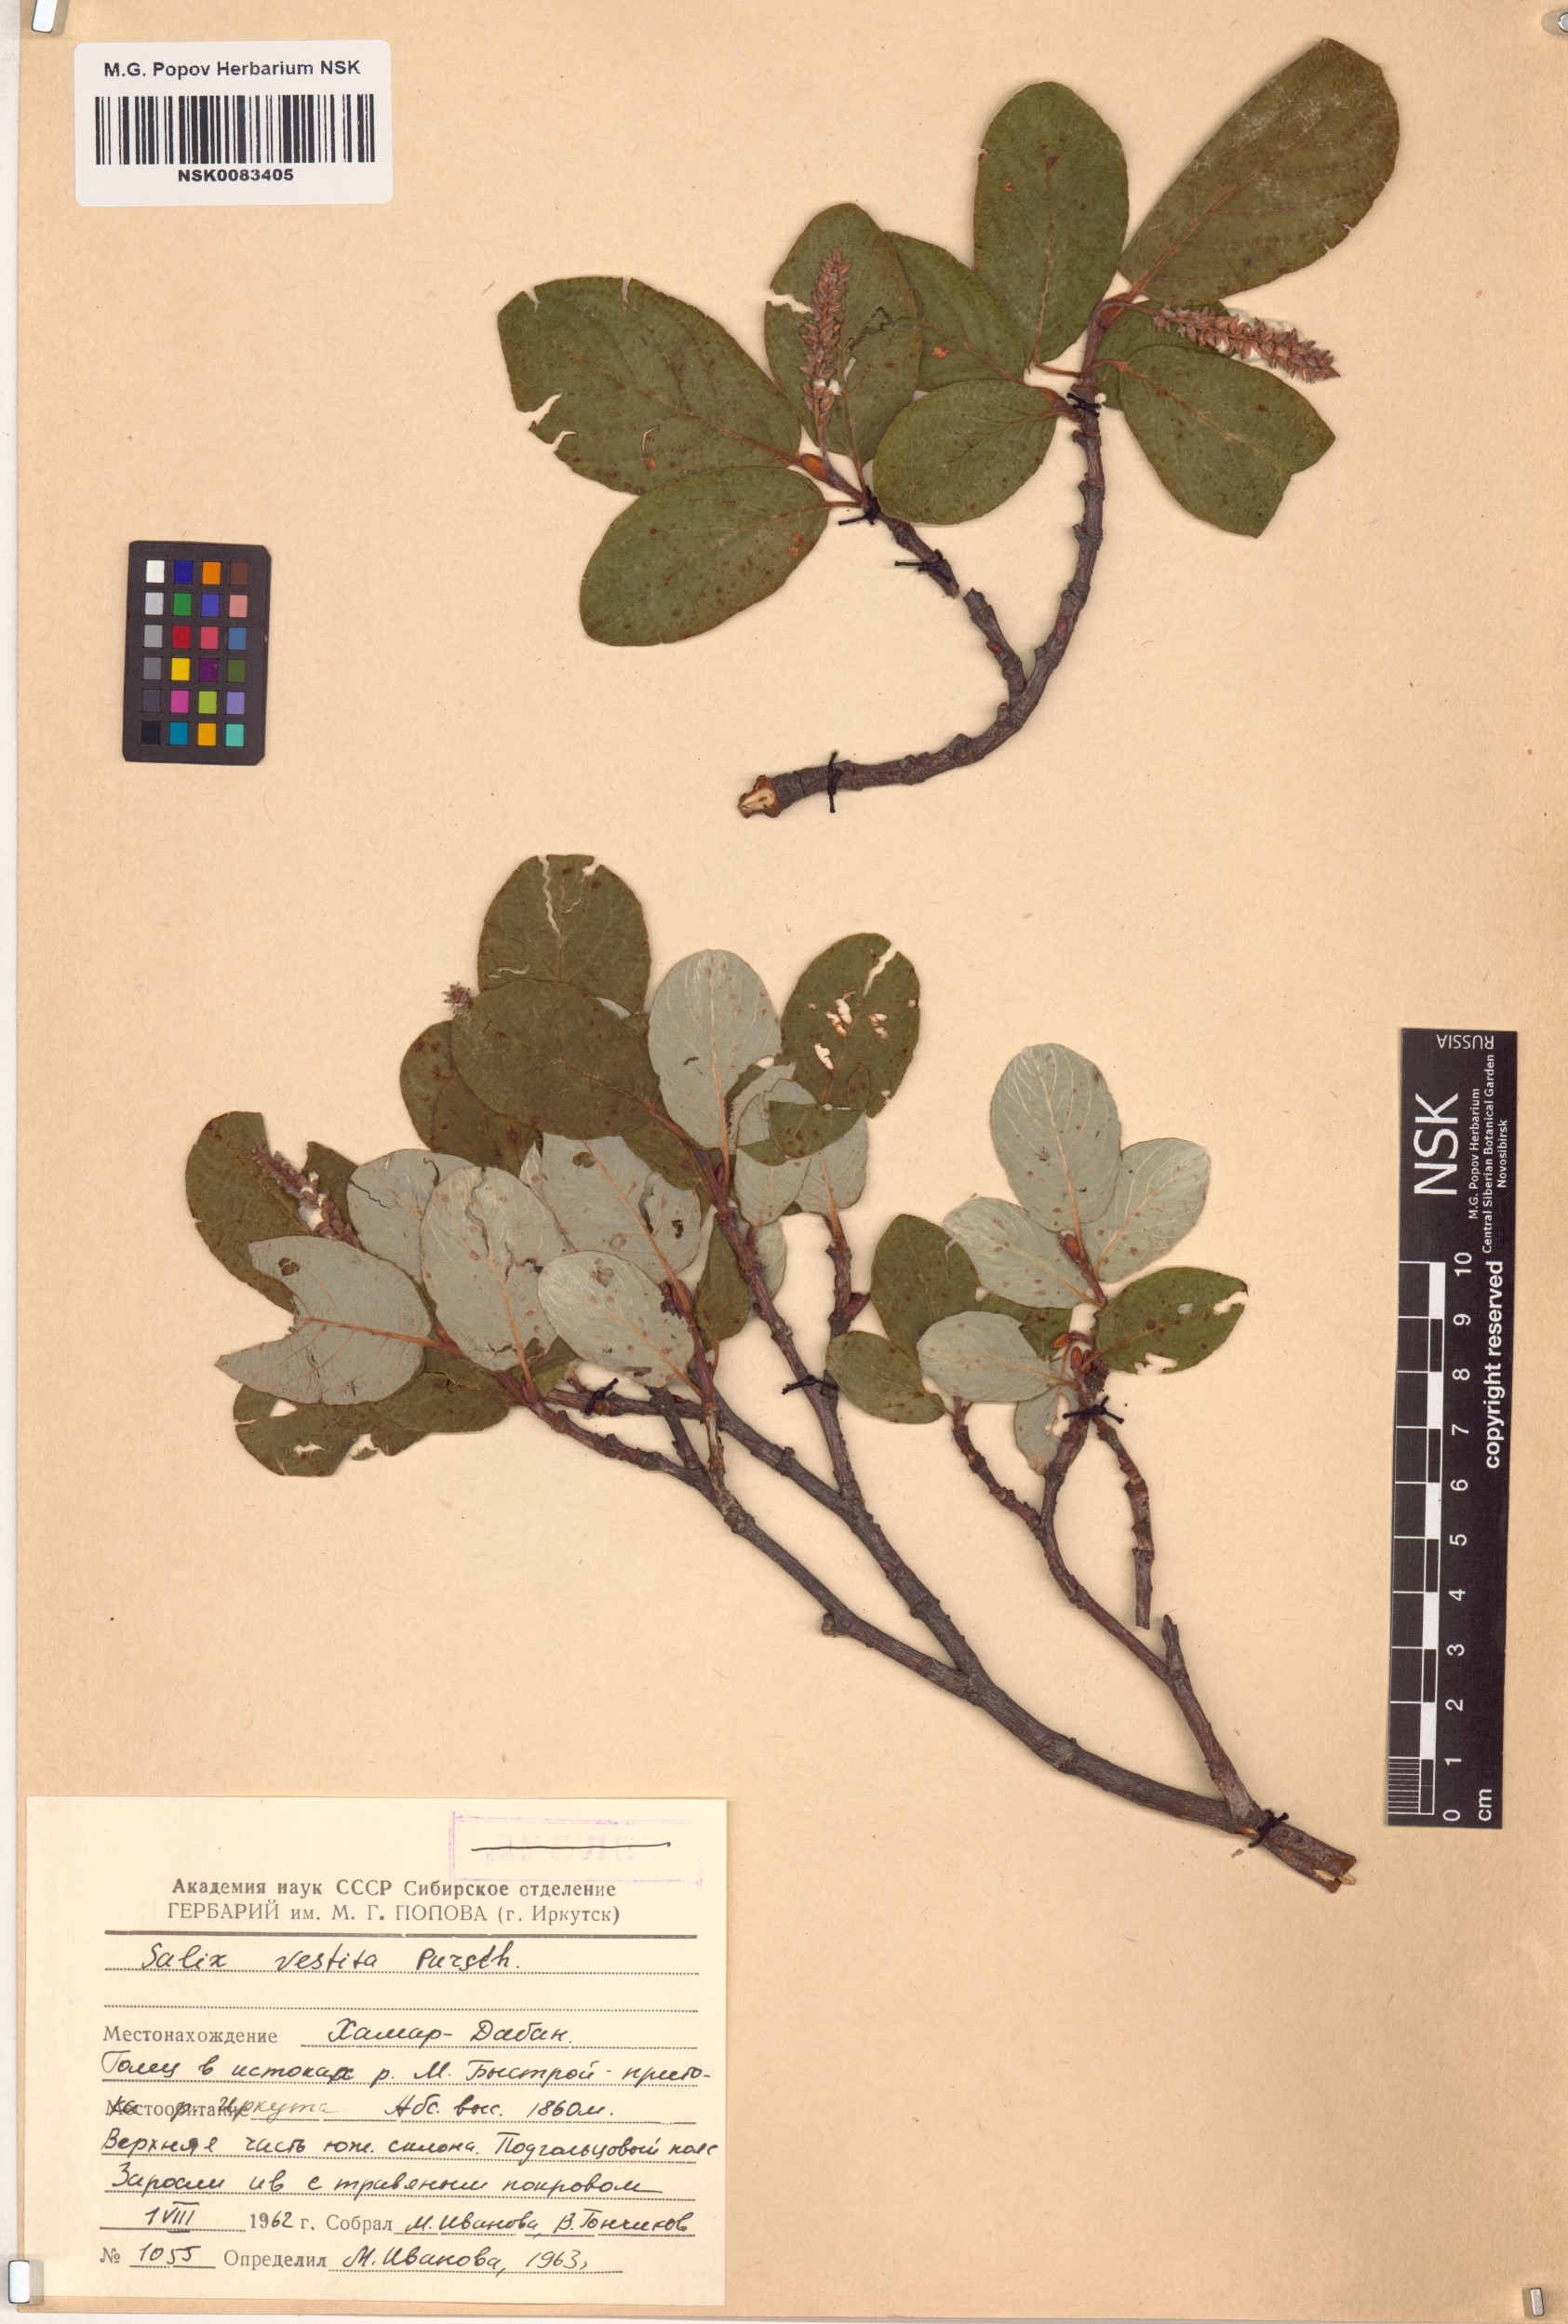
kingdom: Plantae
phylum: Tracheophyta
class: Magnoliopsida
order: Malpighiales
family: Salicaceae
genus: Salix
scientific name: Salix vestita
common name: Hairy willow
